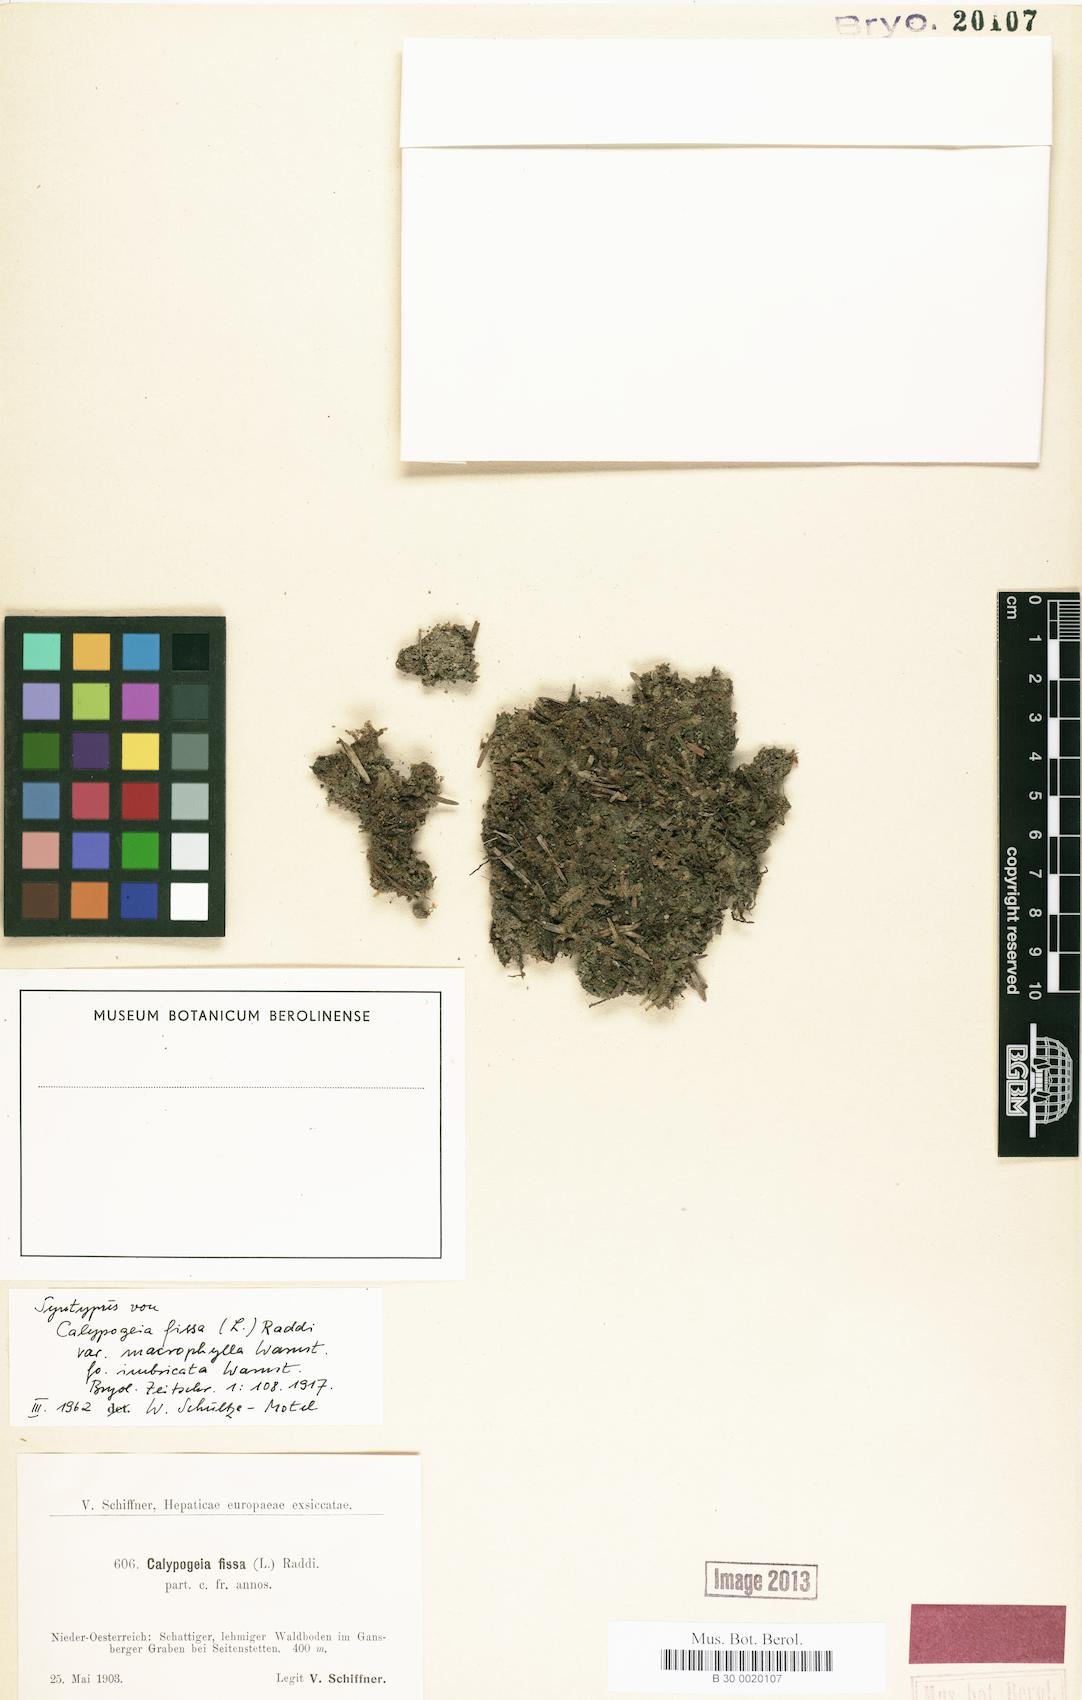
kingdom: Plantae
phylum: Marchantiophyta
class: Jungermanniopsida
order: Jungermanniales
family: Calypogeiaceae
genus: Calypogeia
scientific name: Calypogeia fissa
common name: Common pouchwort
